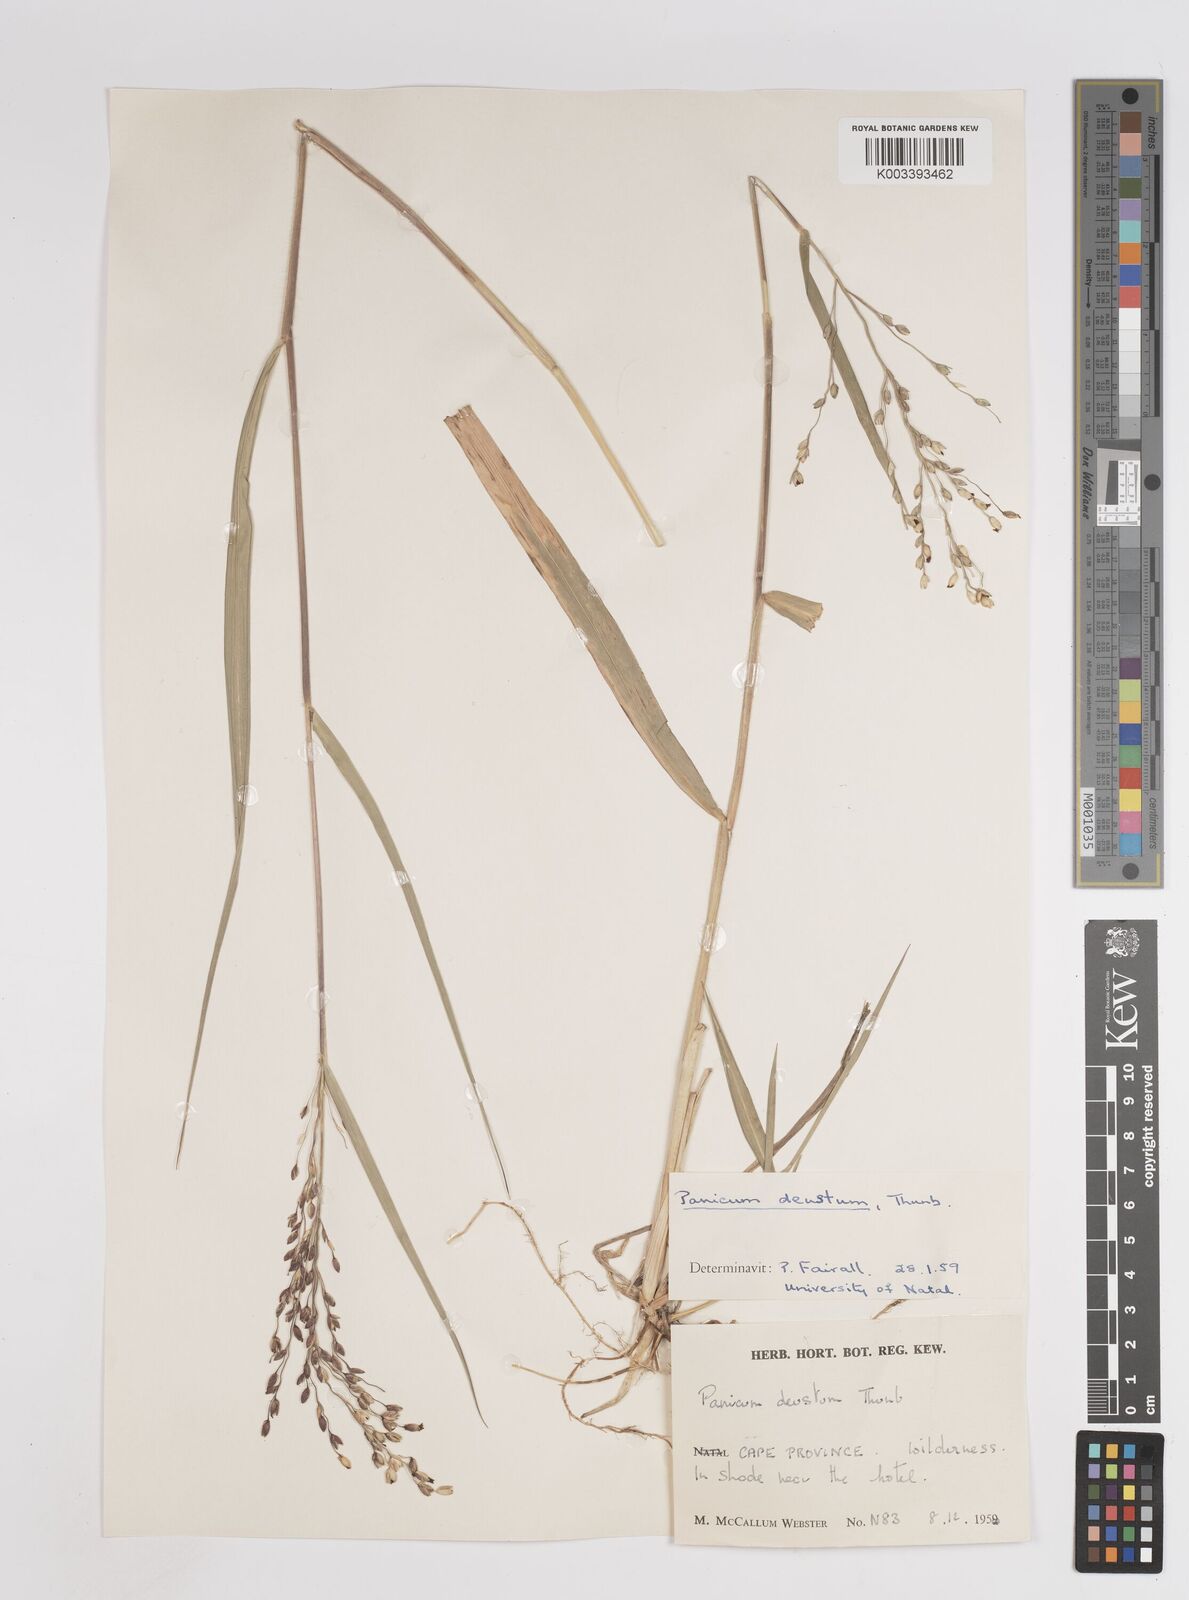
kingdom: Plantae
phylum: Tracheophyta
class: Liliopsida
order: Poales
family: Poaceae
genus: Panicum
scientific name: Panicum deustum
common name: Reed panicum
